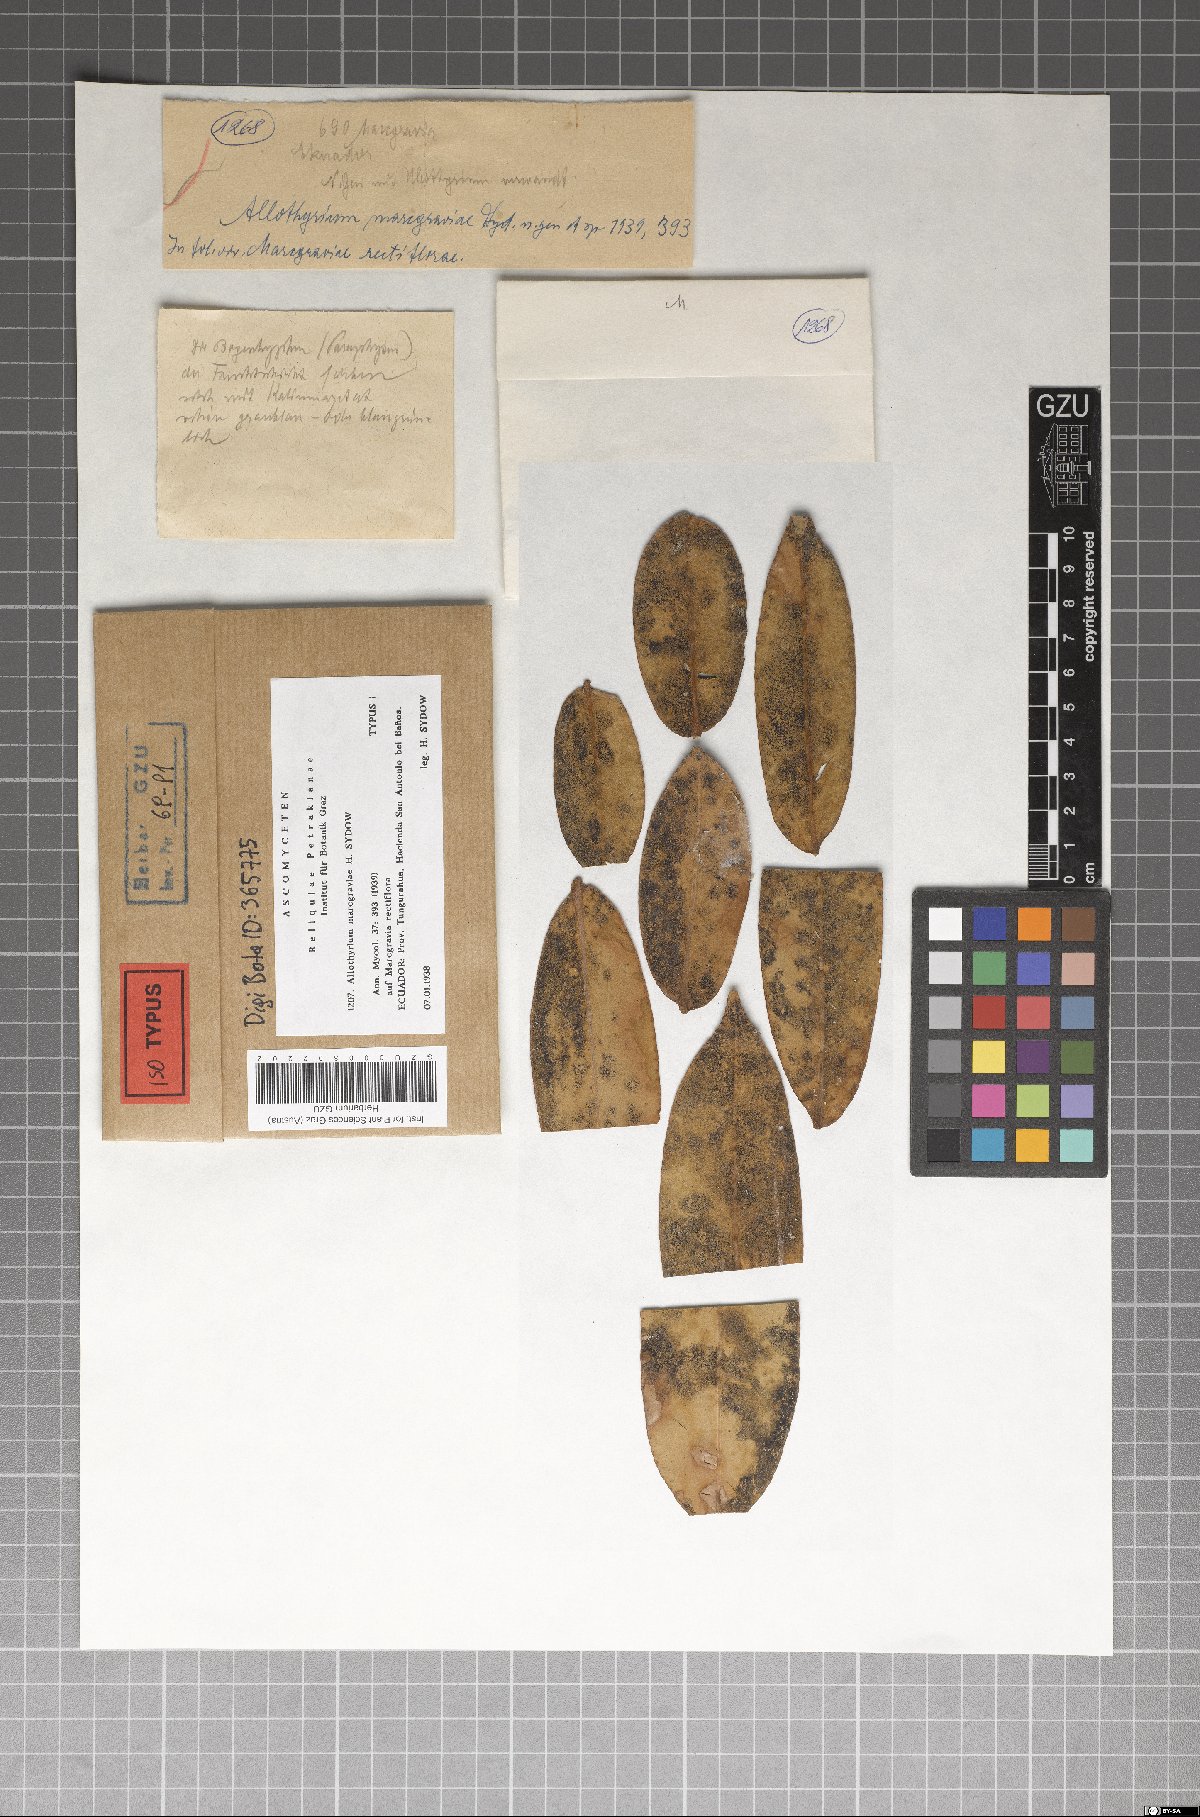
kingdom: Fungi
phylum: Ascomycota
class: Dothideomycetes
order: Asterinales
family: Asterinaceae
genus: Allothyrium
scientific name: Allothyrium marcgraviae
